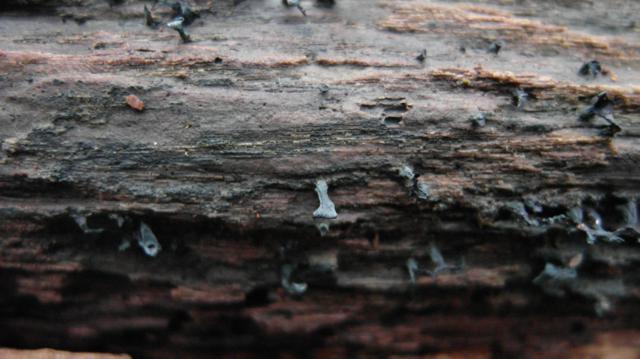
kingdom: Fungi
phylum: Ascomycota
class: Leotiomycetes
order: Helotiales
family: Chlorociboriaceae
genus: Chlorociboria
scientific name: Chlorociboria aeruginascens
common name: almindelig grønskive
